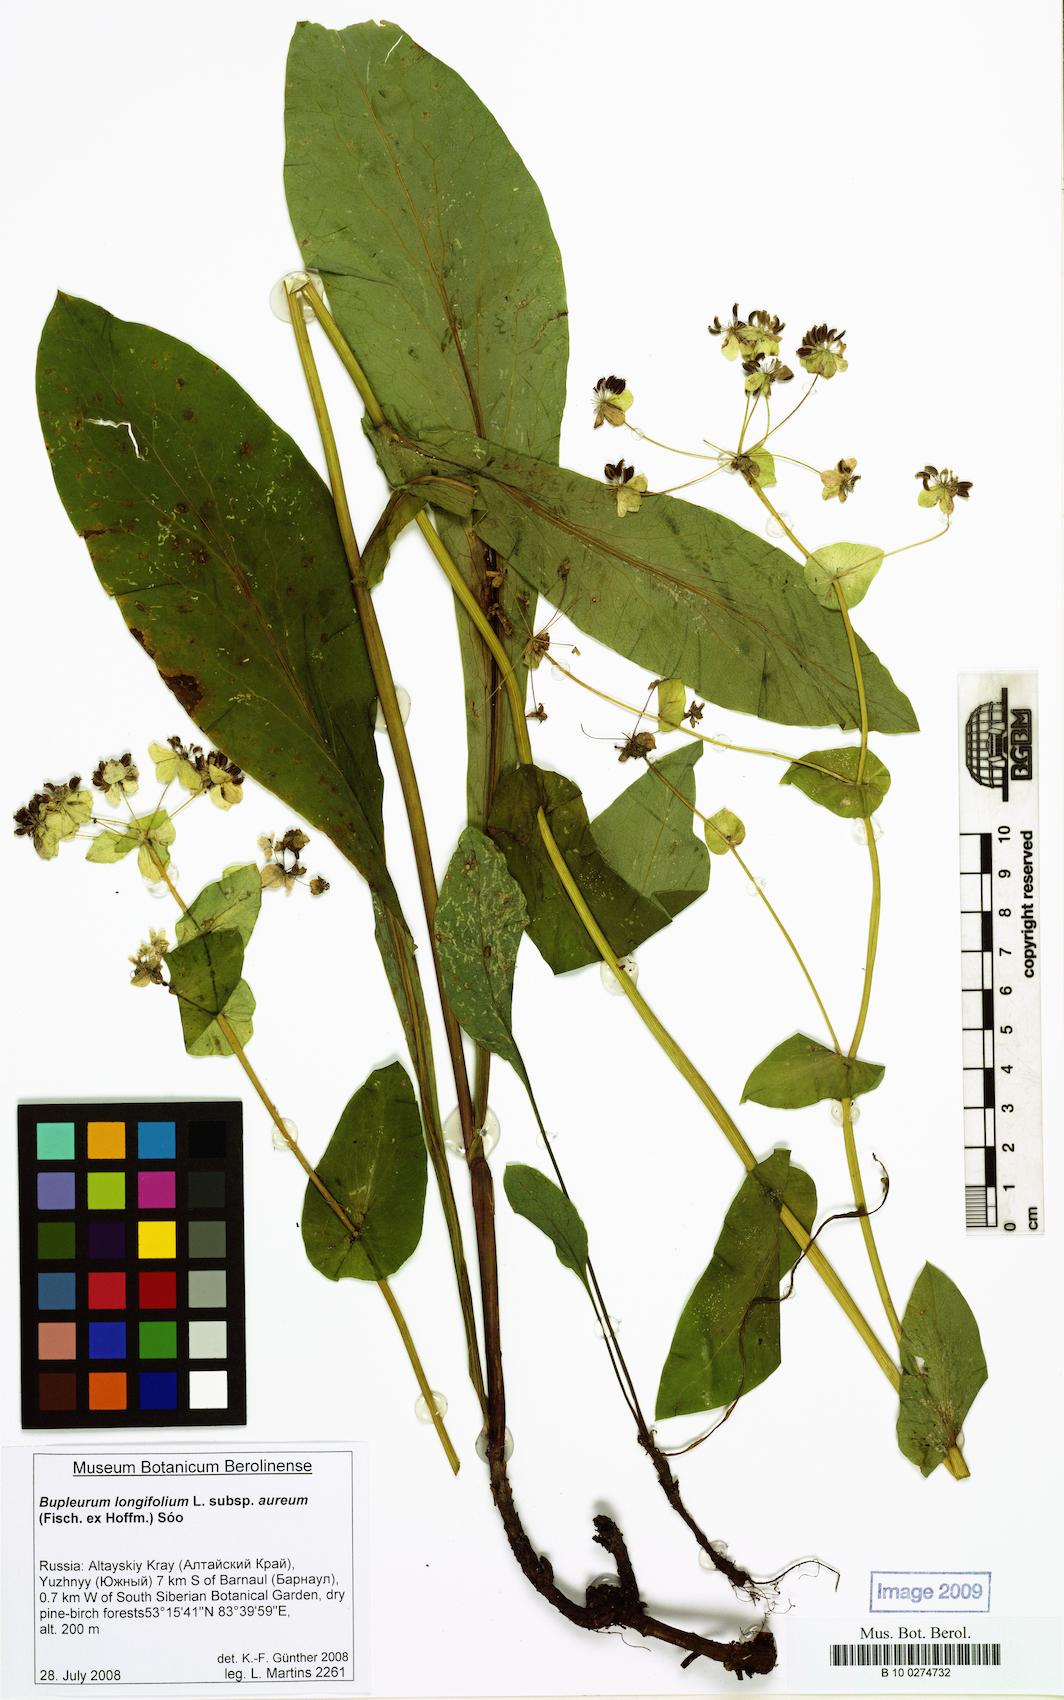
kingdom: Plantae
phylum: Tracheophyta
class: Magnoliopsida
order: Apiales
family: Apiaceae
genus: Bupleurum
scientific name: Bupleurum aureum
